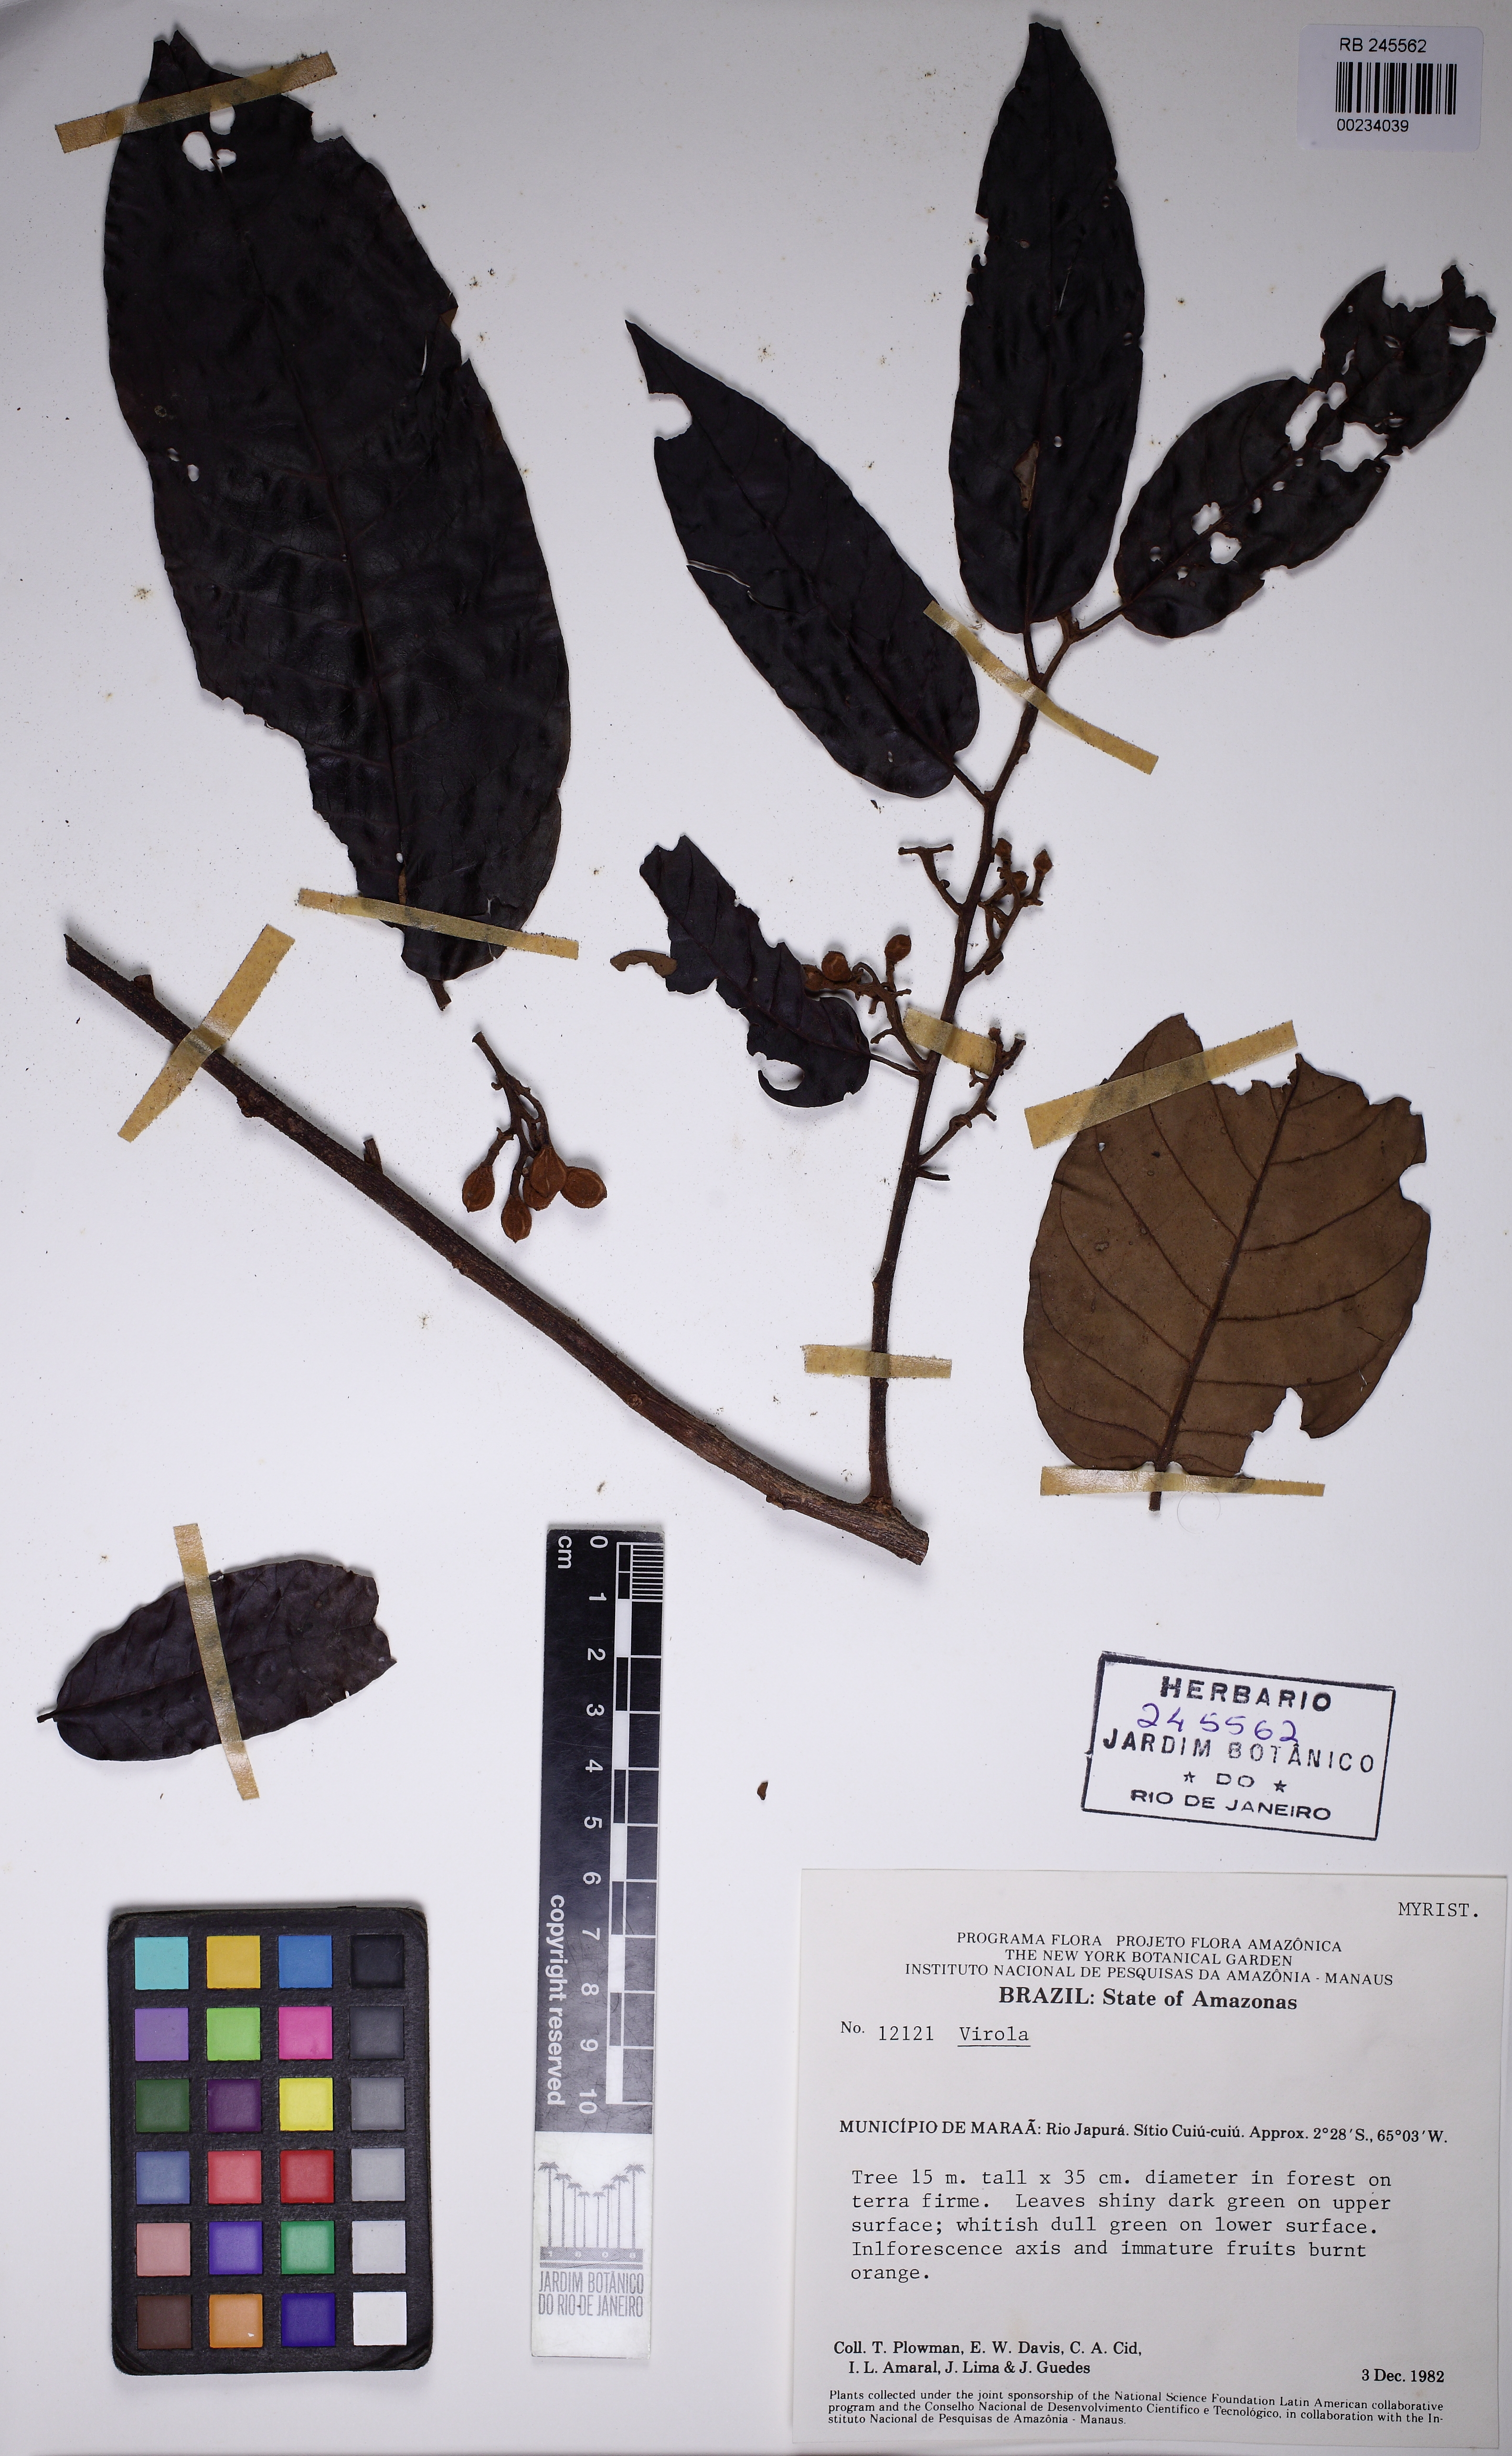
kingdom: Plantae
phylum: Tracheophyta
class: Magnoliopsida
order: Magnoliales
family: Myristicaceae
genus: Virola
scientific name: Virola
